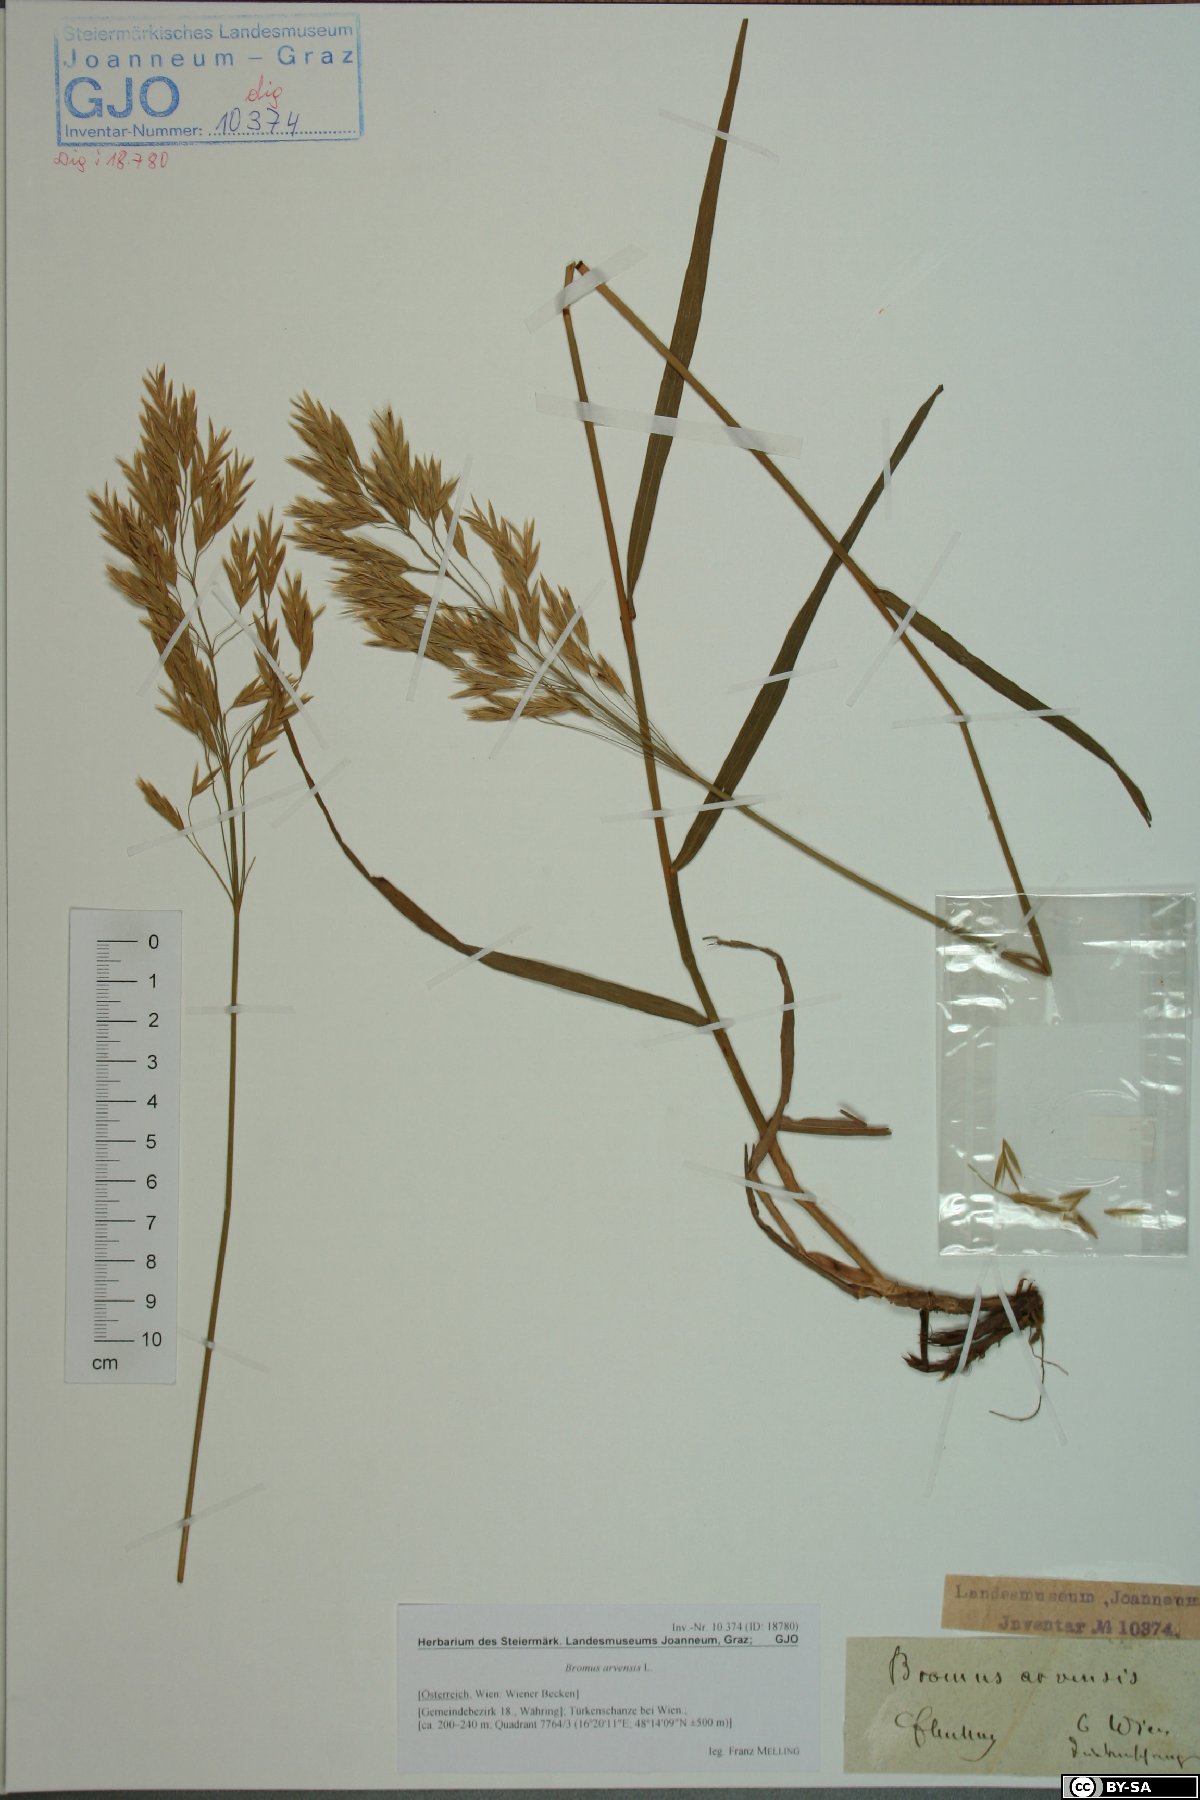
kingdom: Plantae
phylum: Tracheophyta
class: Liliopsida
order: Poales
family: Poaceae
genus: Bromus
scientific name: Bromus arvensis
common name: Field brome
